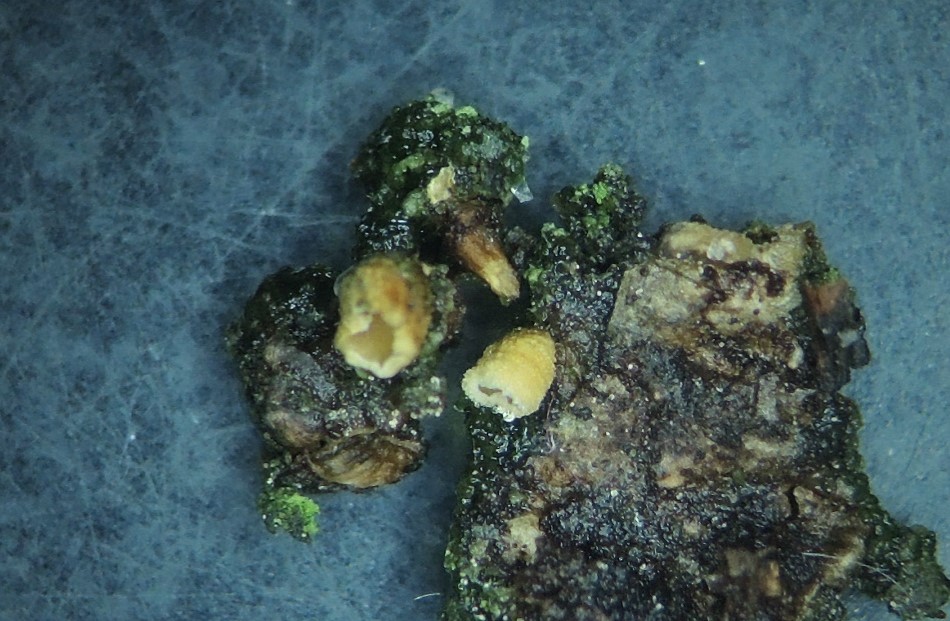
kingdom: Fungi
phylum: Basidiomycota
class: Agaricomycetes
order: Agaricales
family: Cyphellaceae
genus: Cyphella
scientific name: Cyphella ferruginea
